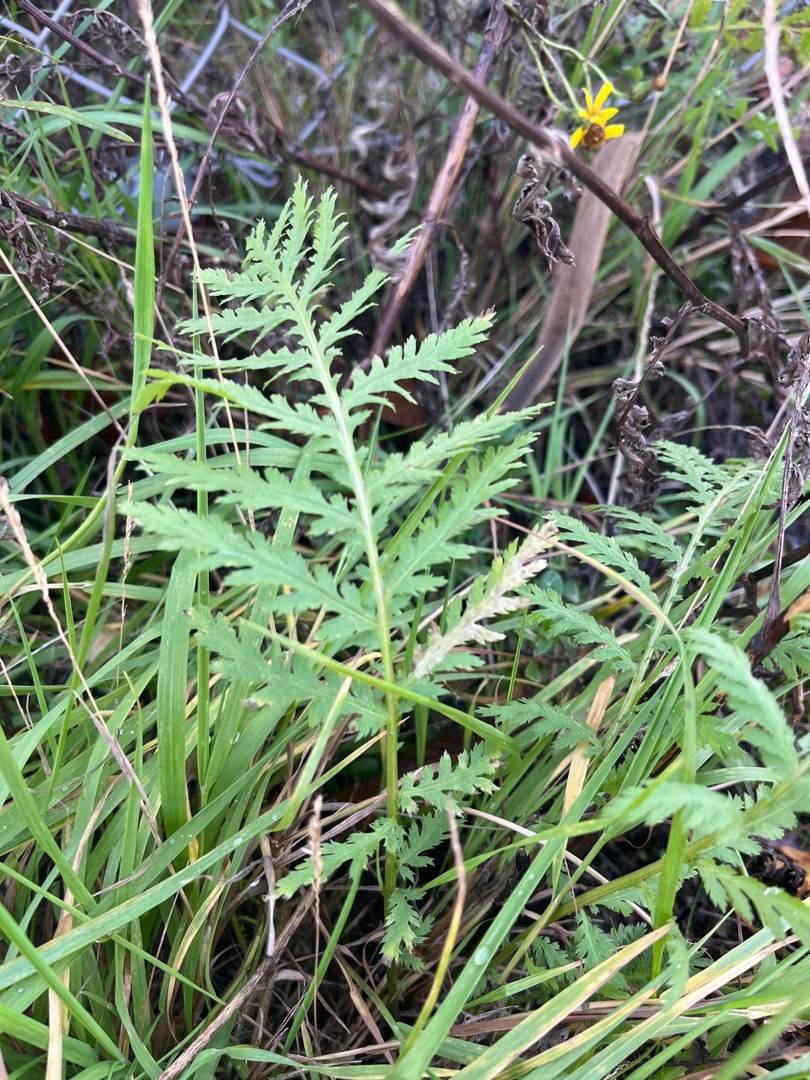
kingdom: Plantae
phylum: Tracheophyta
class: Magnoliopsida
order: Asterales
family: Asteraceae
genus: Tanacetum
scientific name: Tanacetum vulgare
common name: Rejnfan
